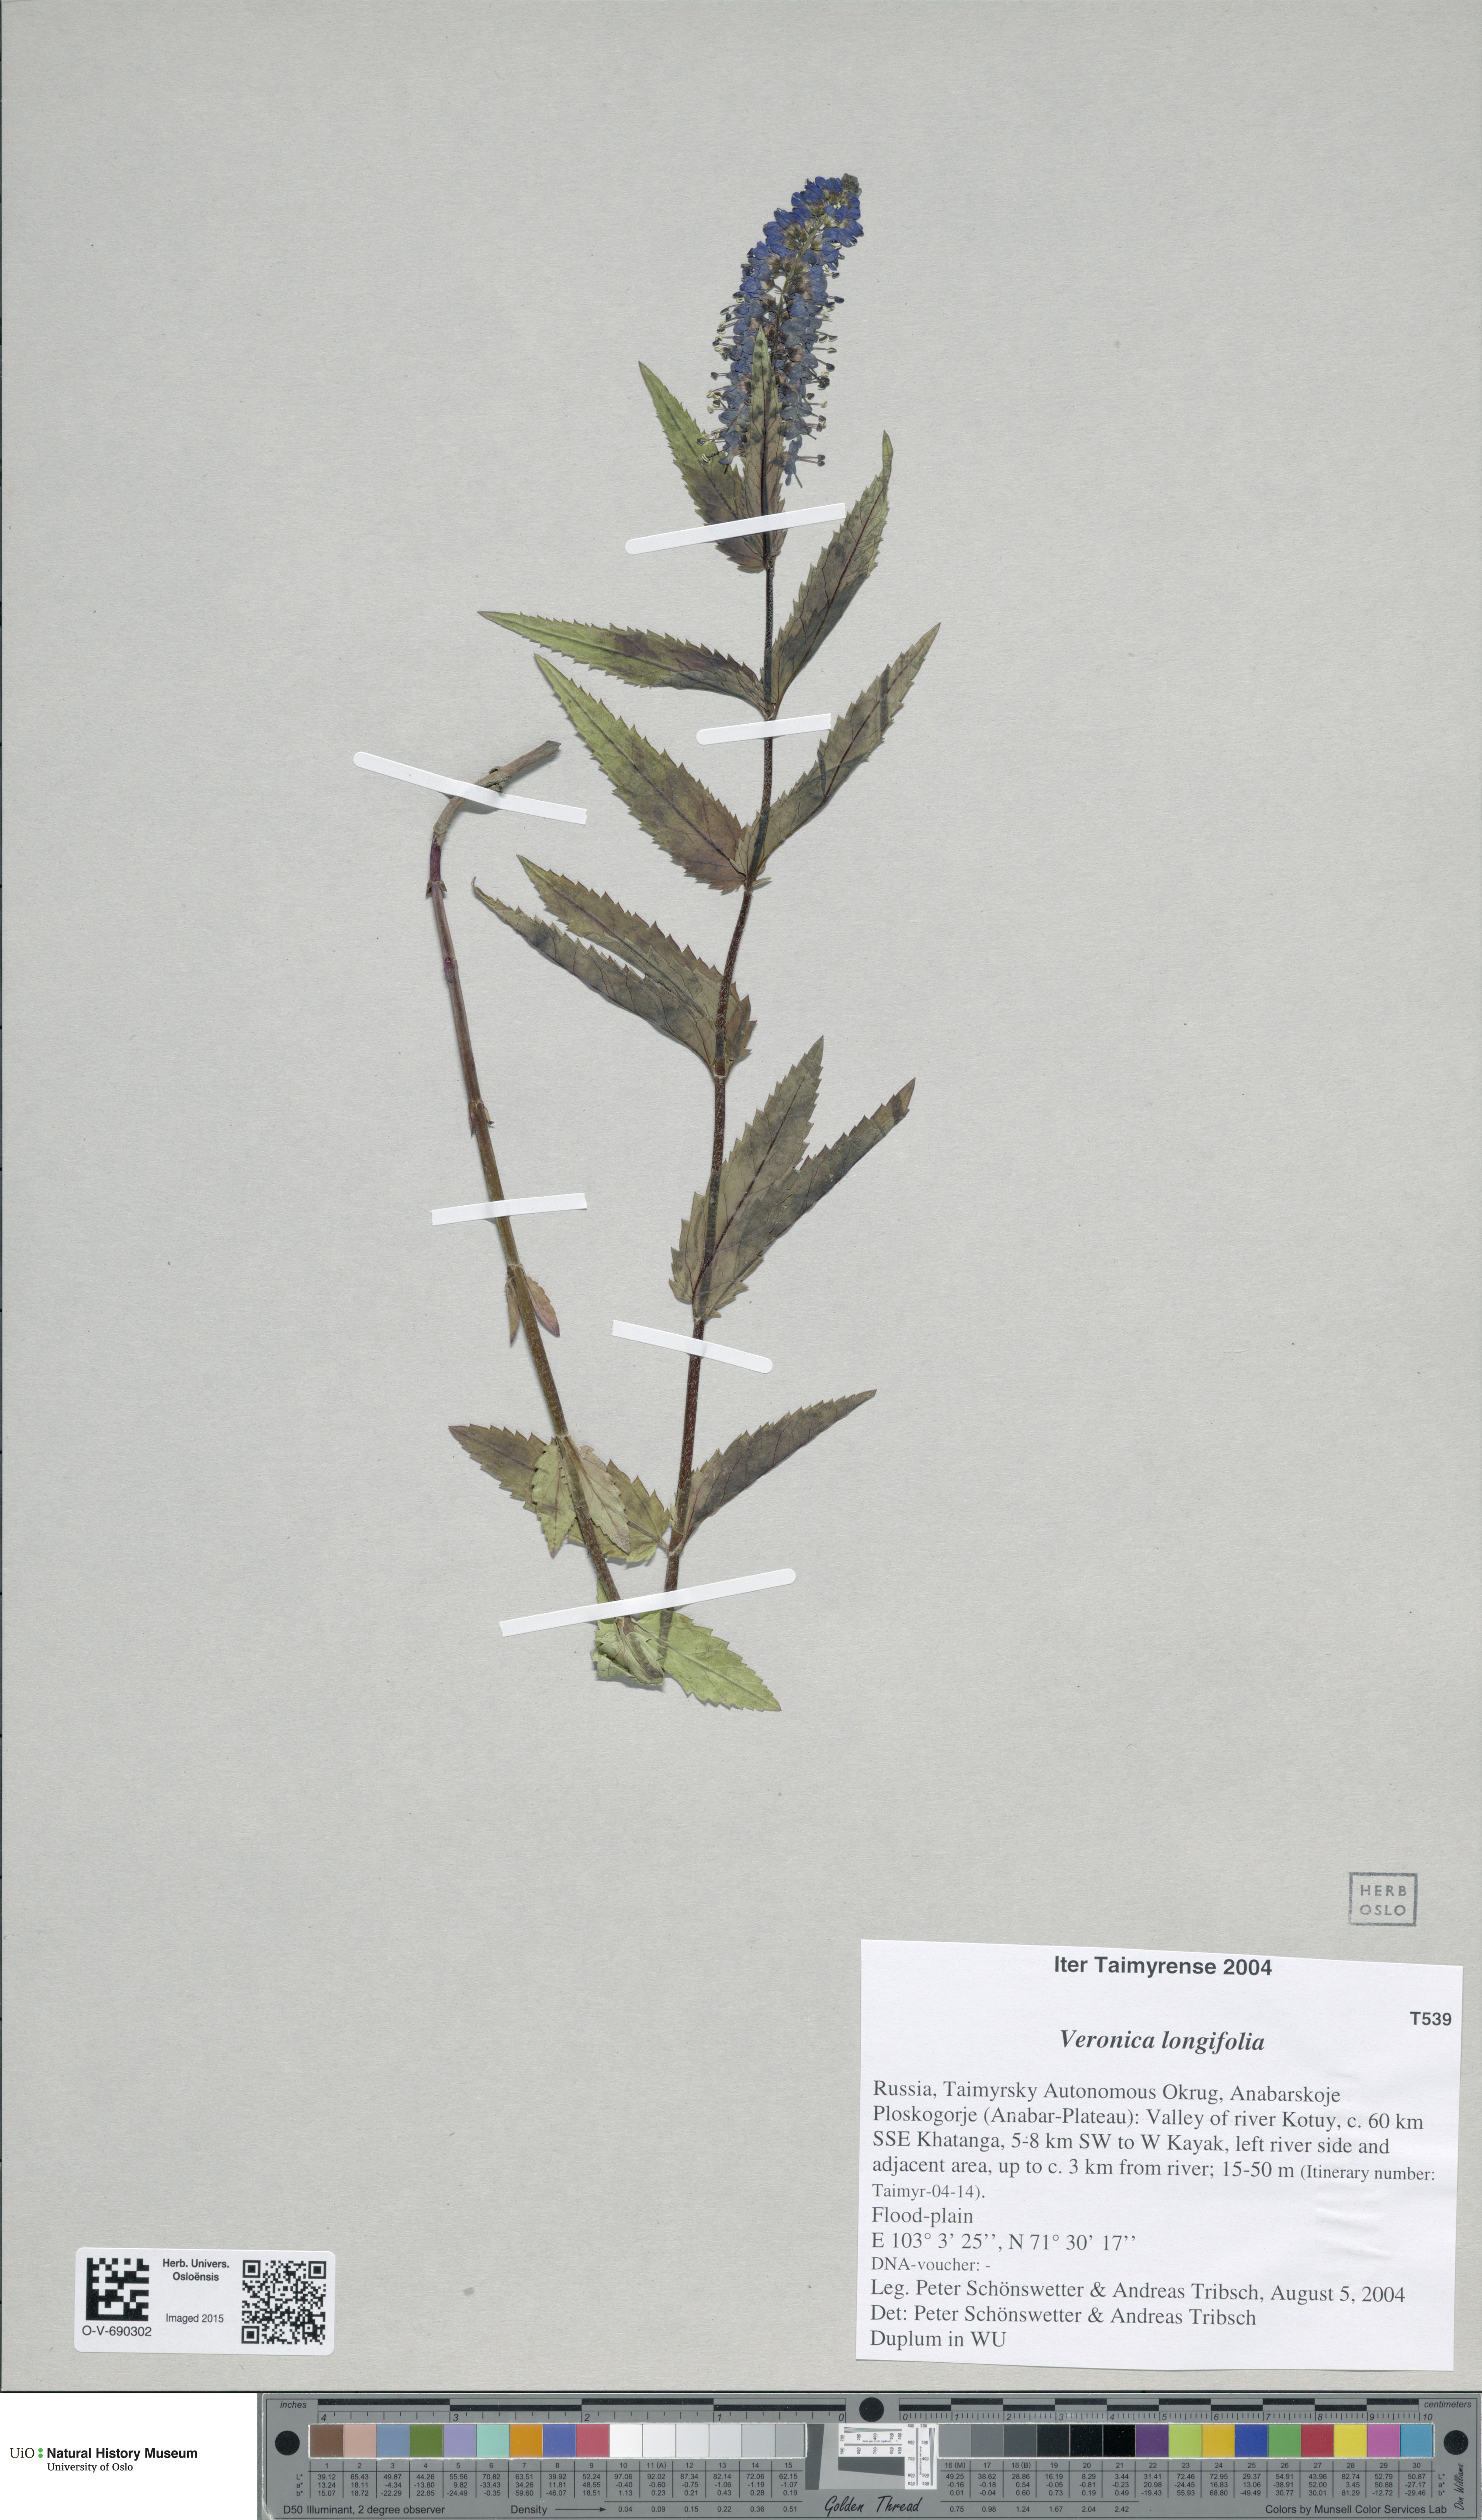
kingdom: Plantae
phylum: Tracheophyta
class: Magnoliopsida
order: Lamiales
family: Plantaginaceae
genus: Veronica
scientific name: Veronica longifolia
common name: Garden speedwell
